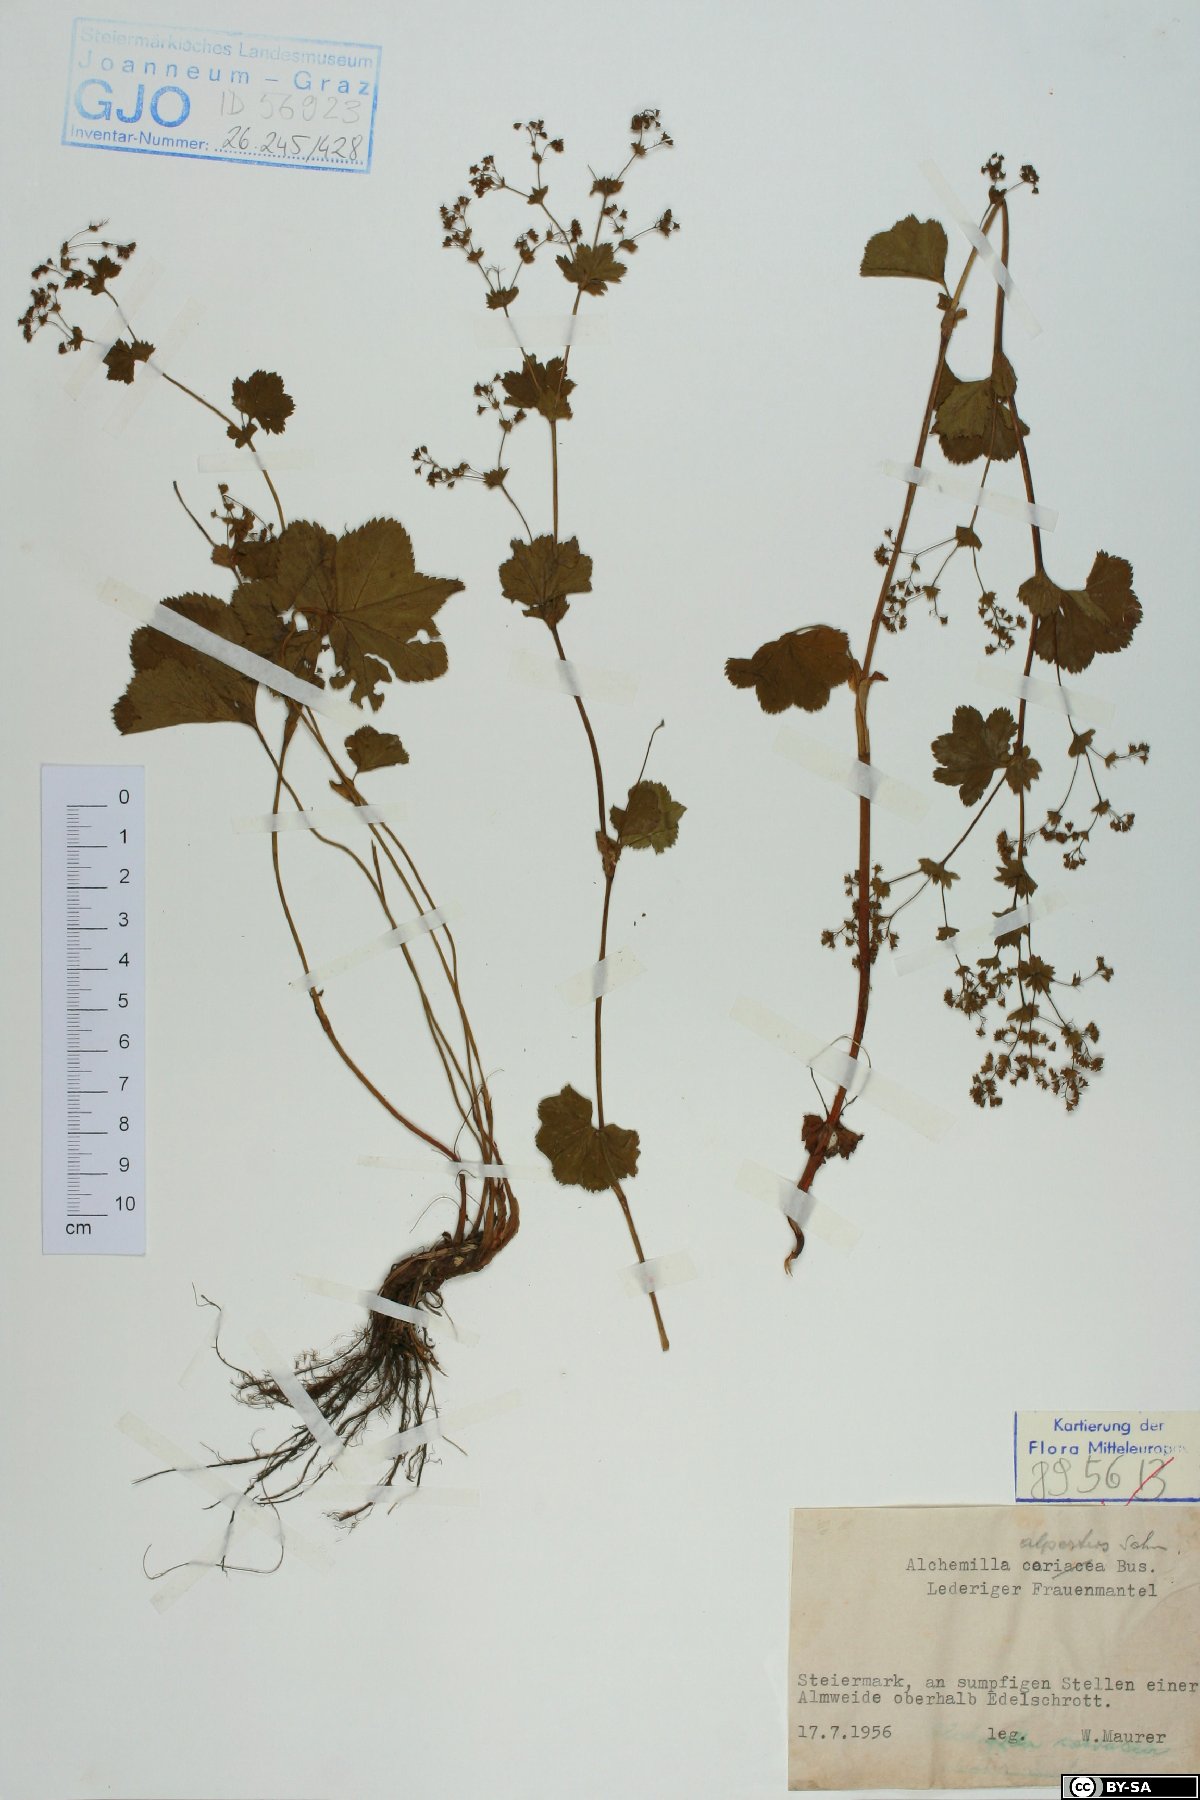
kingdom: Plantae
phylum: Tracheophyta
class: Magnoliopsida
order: Rosales
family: Rosaceae
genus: Alchemilla
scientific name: Alchemilla coriacea
